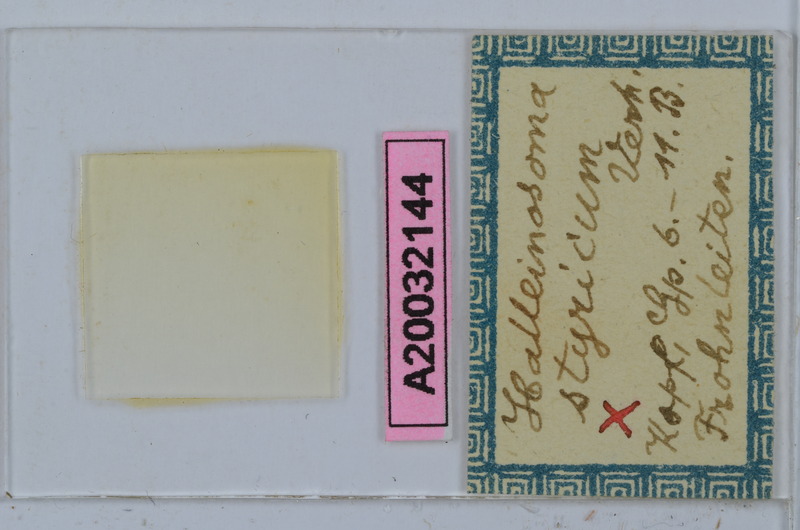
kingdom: Animalia
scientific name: Animalia
